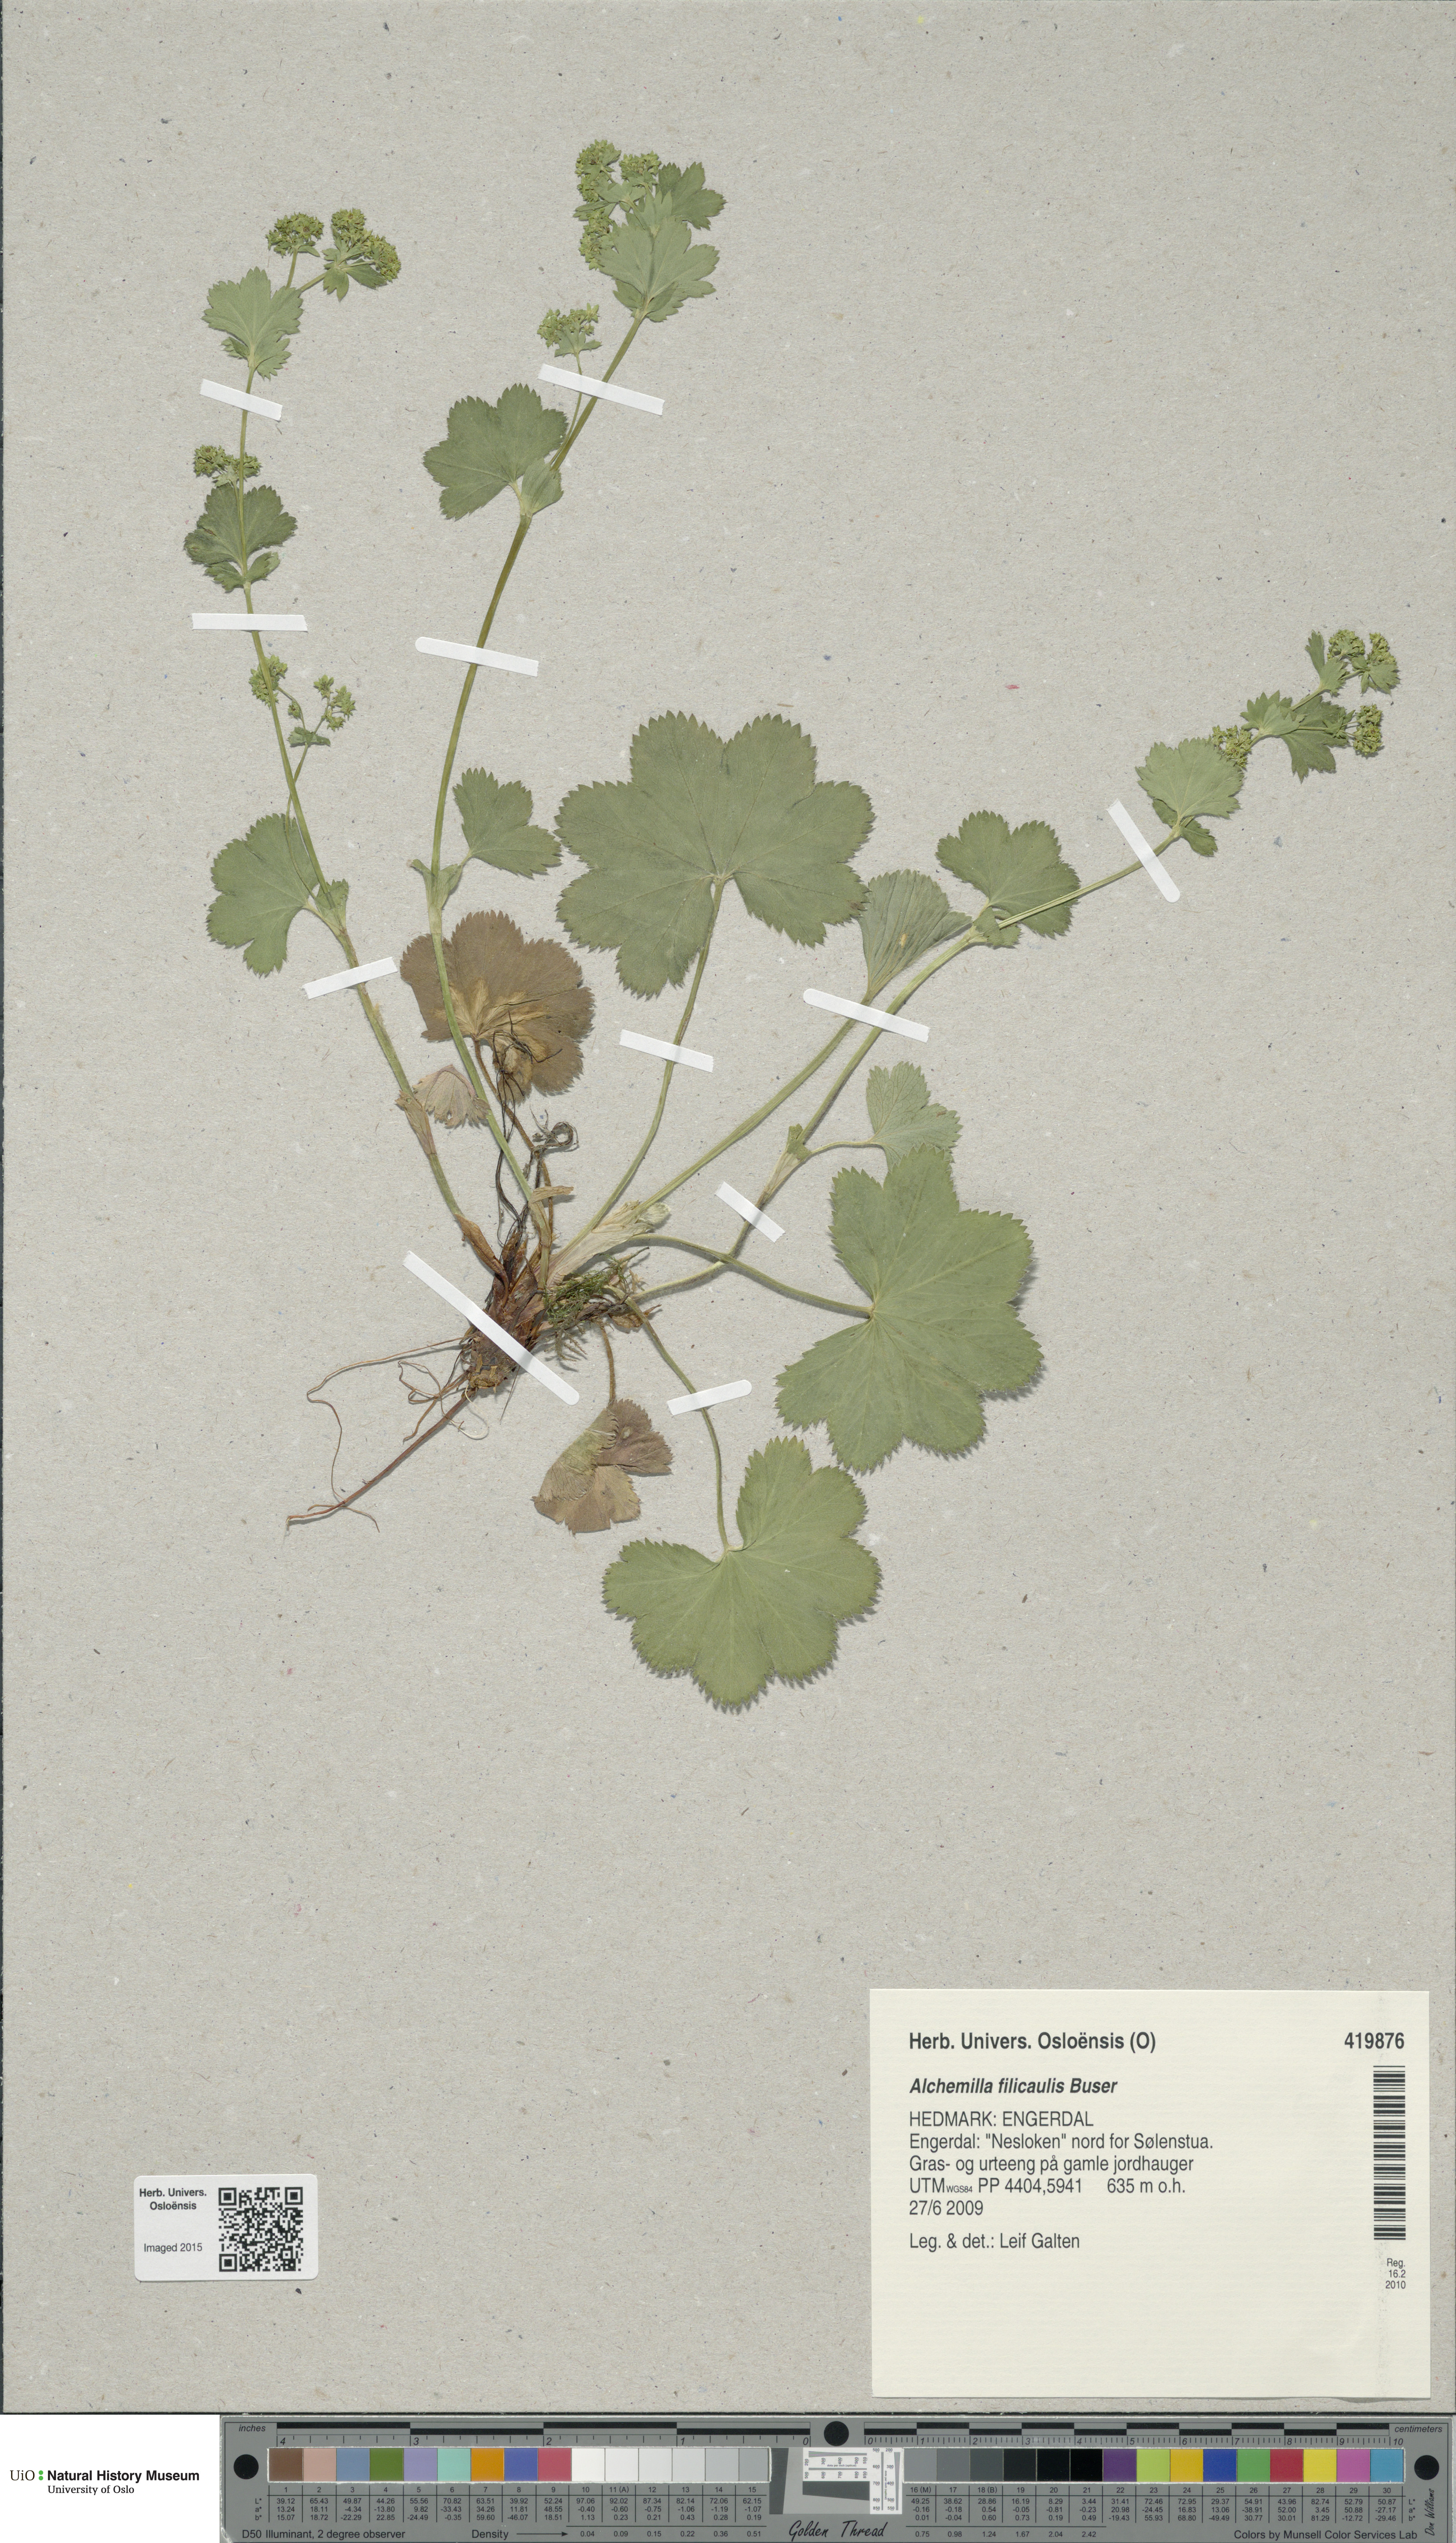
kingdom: Plantae
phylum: Tracheophyta
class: Magnoliopsida
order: Rosales
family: Rosaceae
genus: Alchemilla
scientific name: Alchemilla filicaulis
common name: Hairy lady's-mantle
